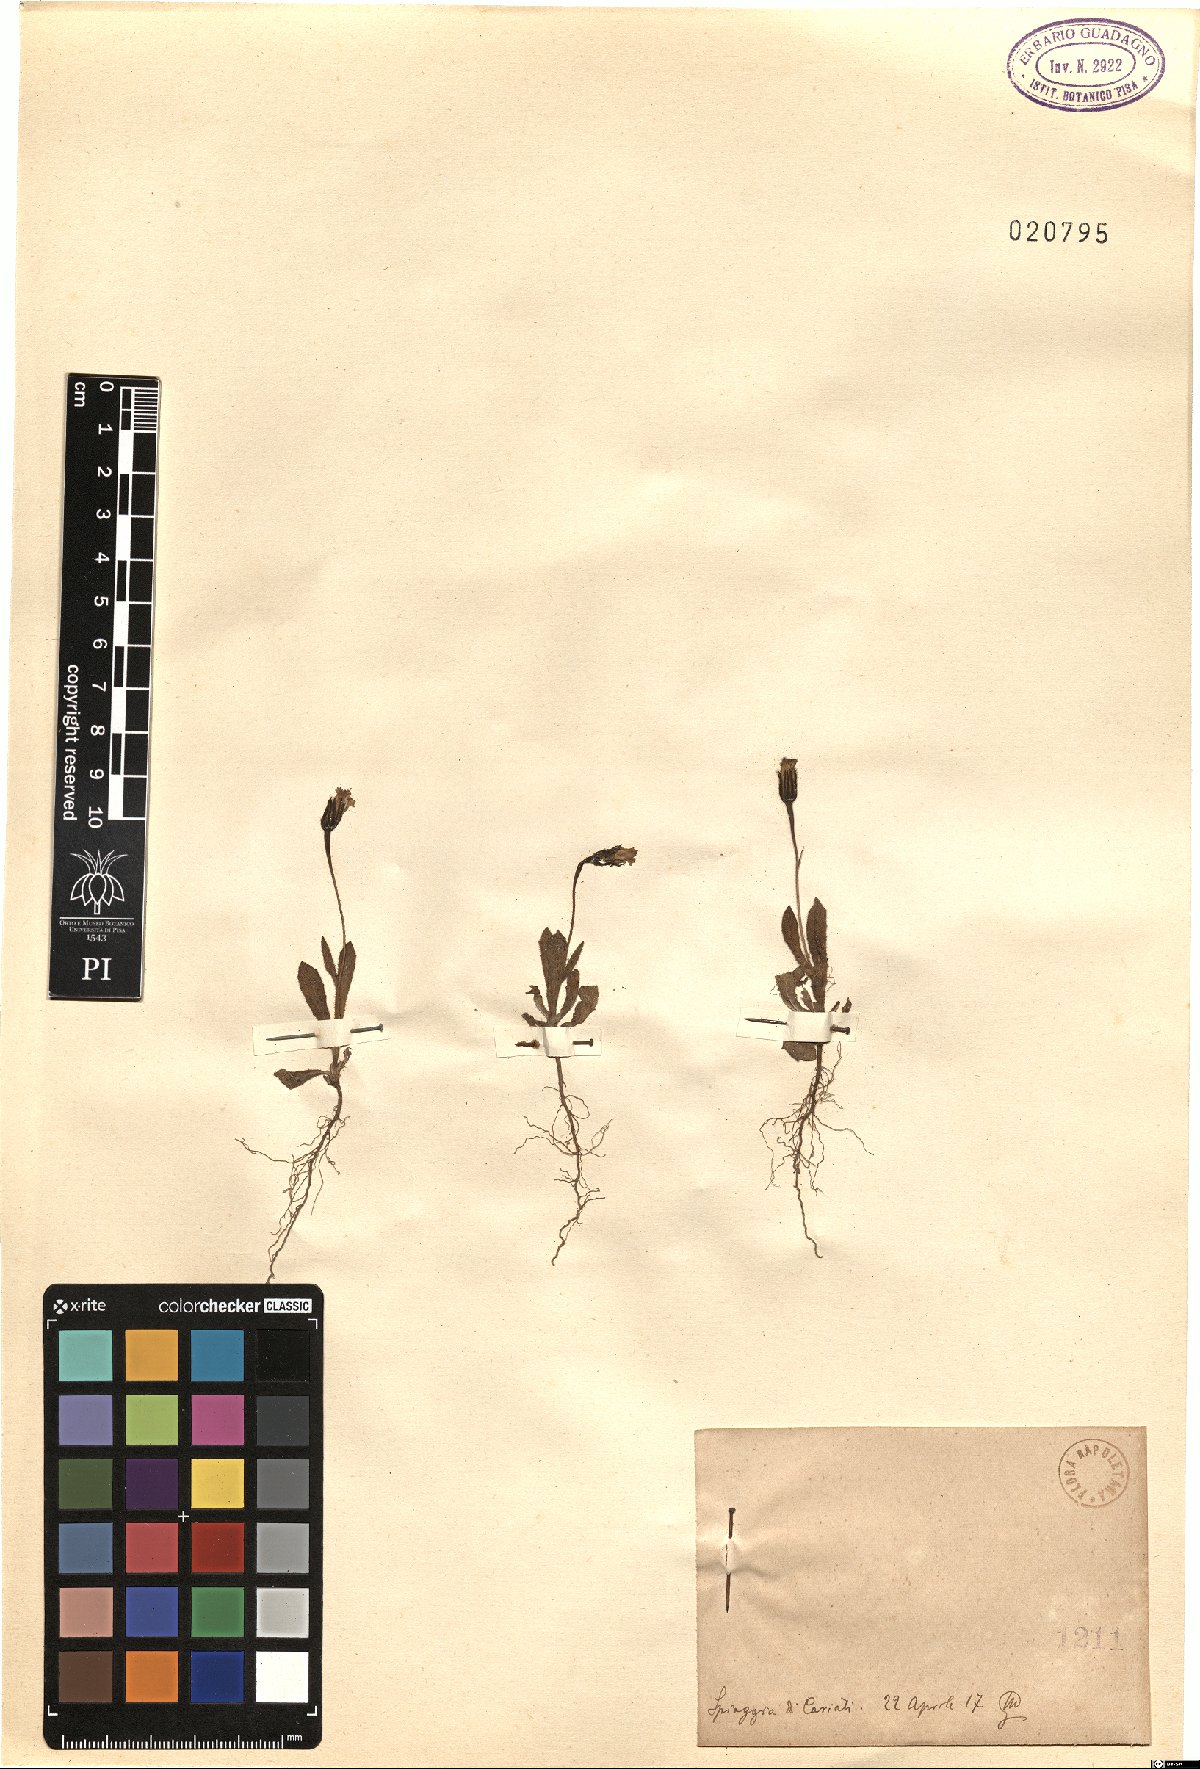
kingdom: Plantae
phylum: Tracheophyta
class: Magnoliopsida
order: Asterales
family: Asteraceae
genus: Rhagadiolus
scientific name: Rhagadiolus
